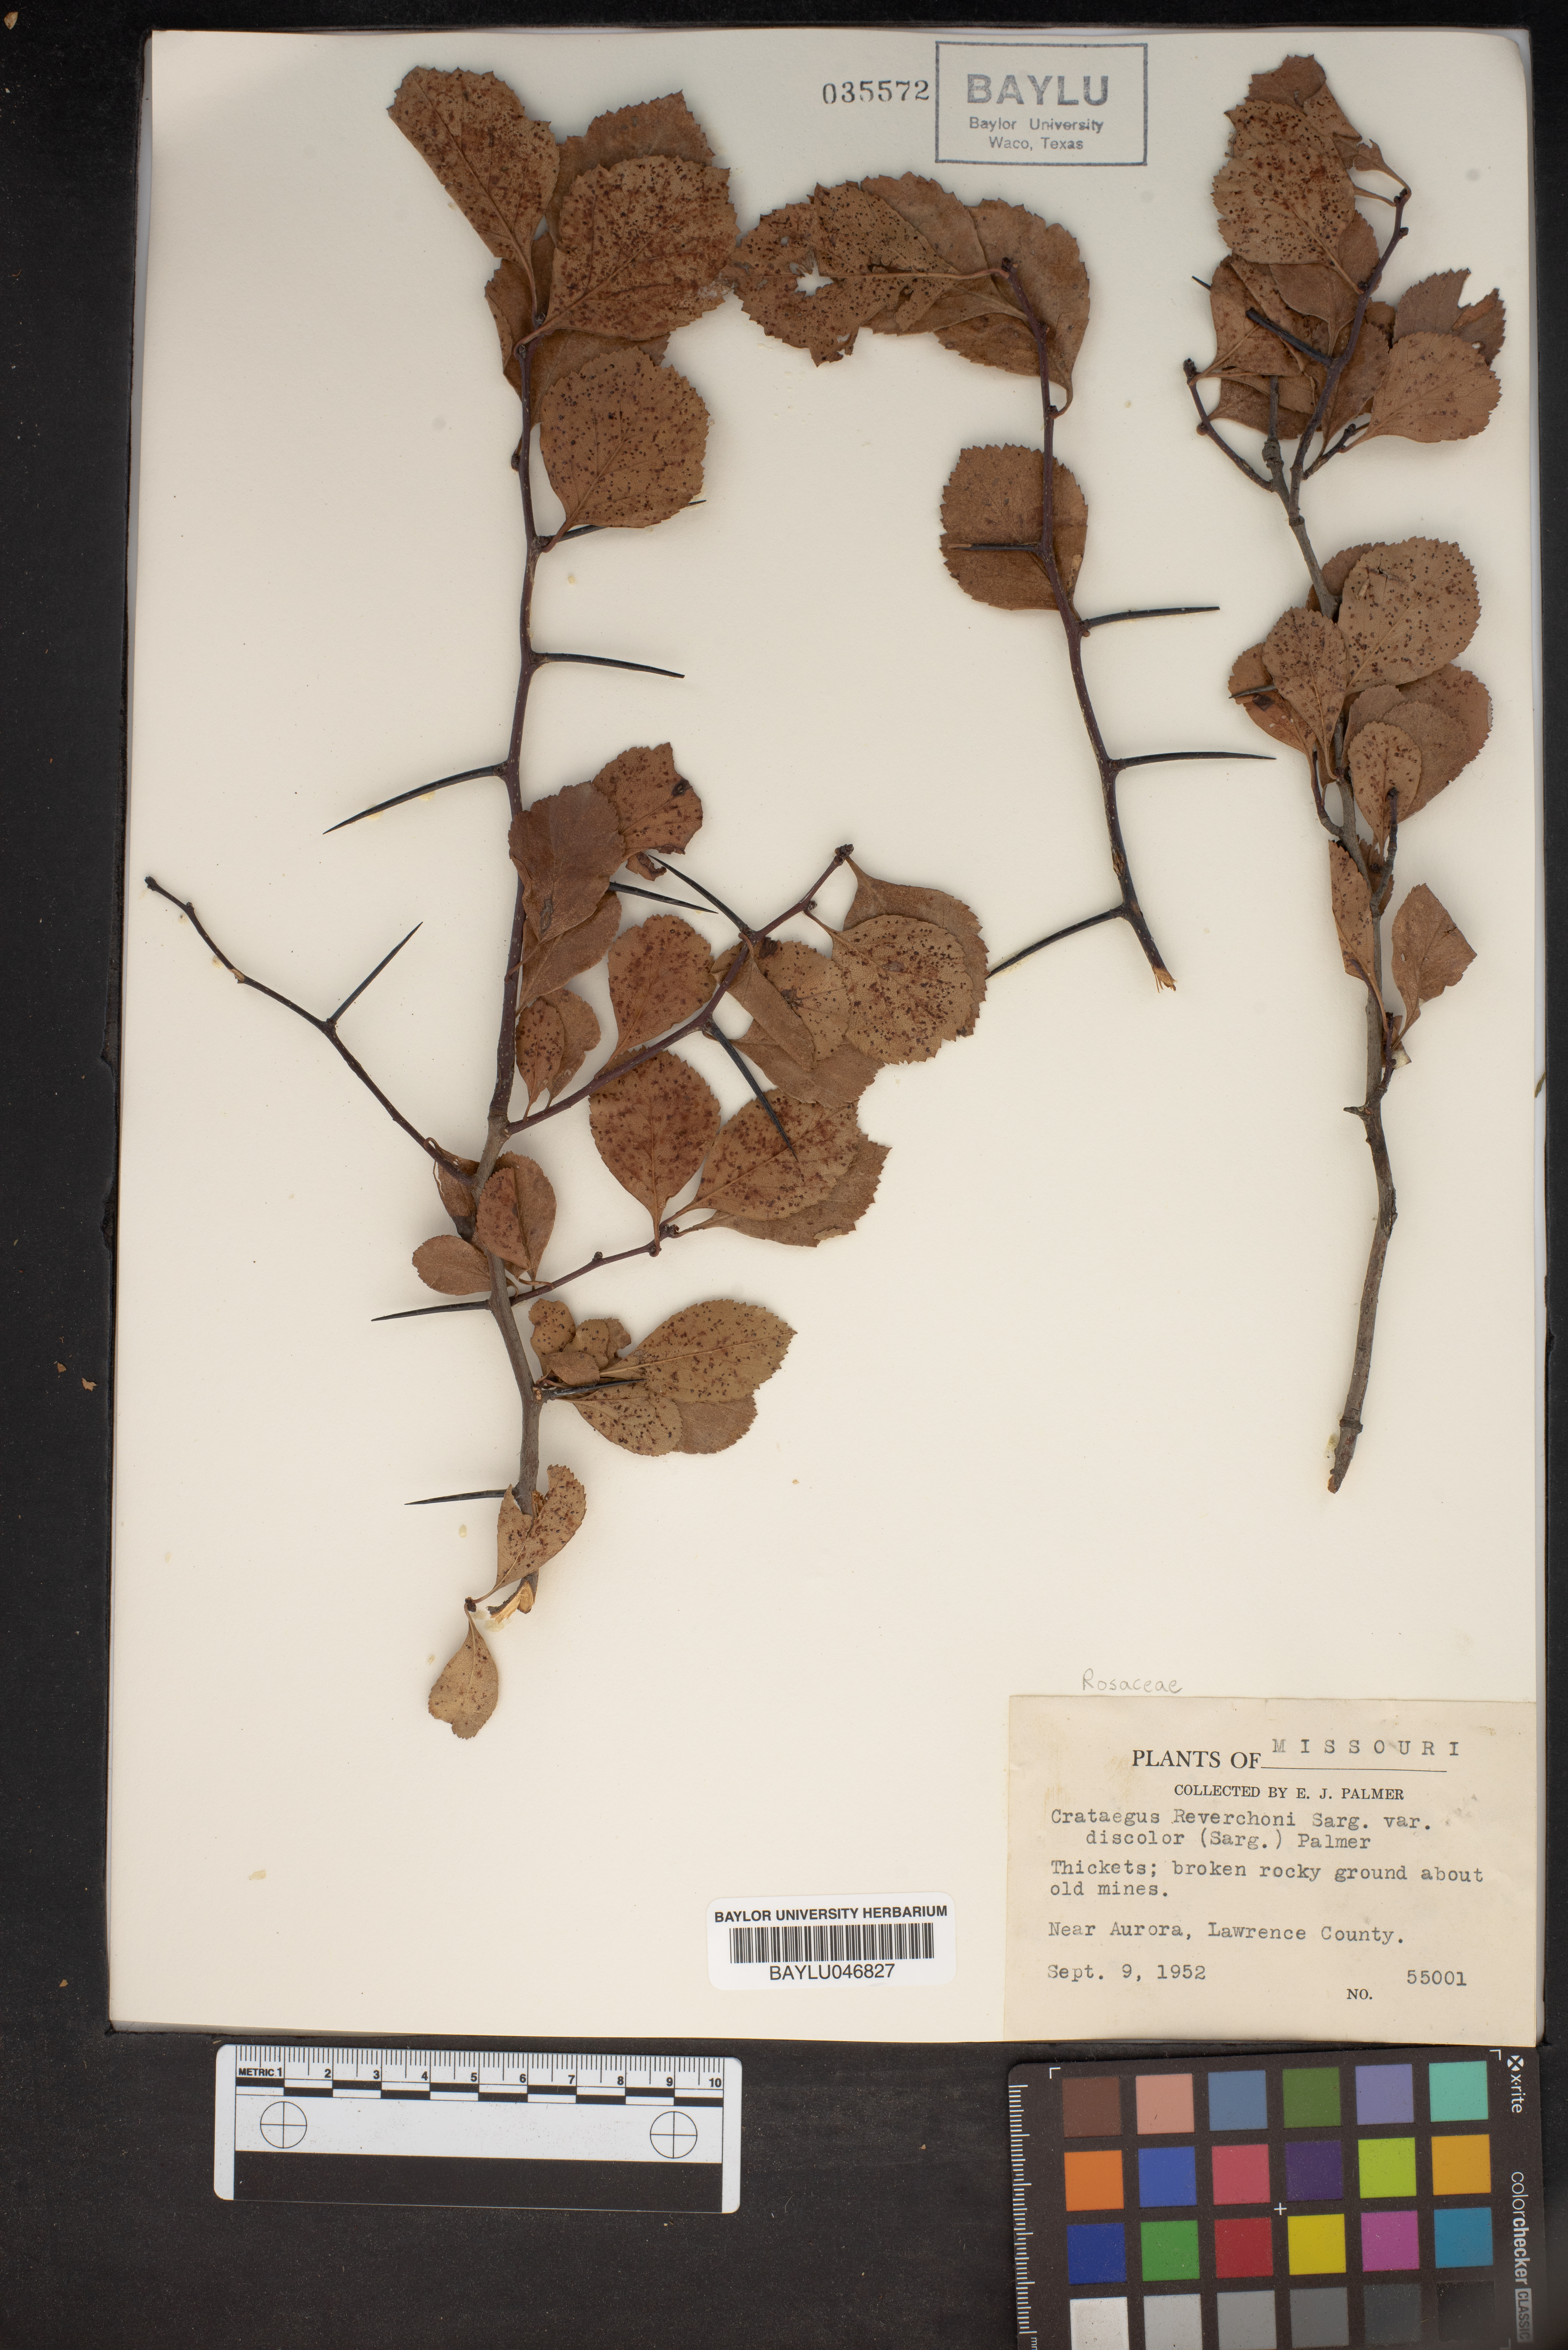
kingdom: Plantae
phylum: Tracheophyta
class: Magnoliopsida
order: Rosales
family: Rosaceae
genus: Crataegus
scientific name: Crataegus reverchonii
